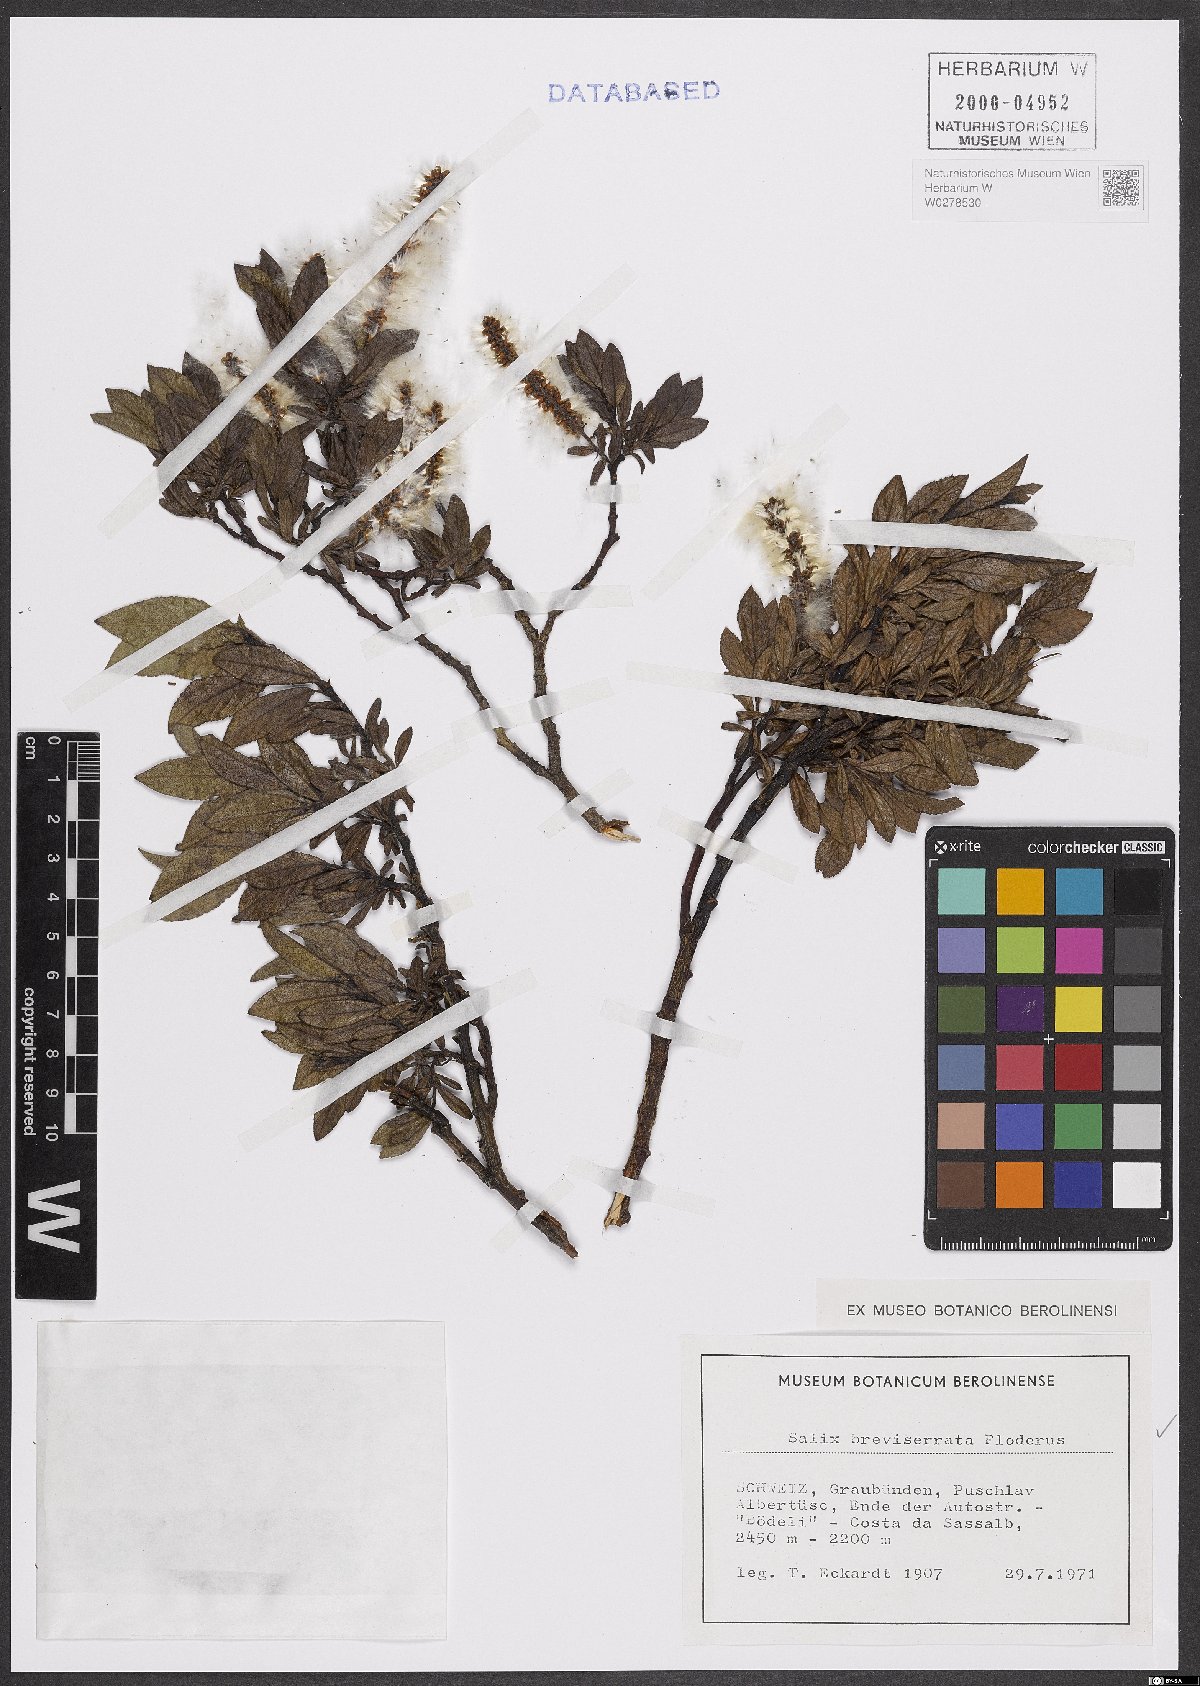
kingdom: Plantae
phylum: Tracheophyta
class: Magnoliopsida
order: Malpighiales
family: Salicaceae
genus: Salix
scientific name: Salix breviserrata
